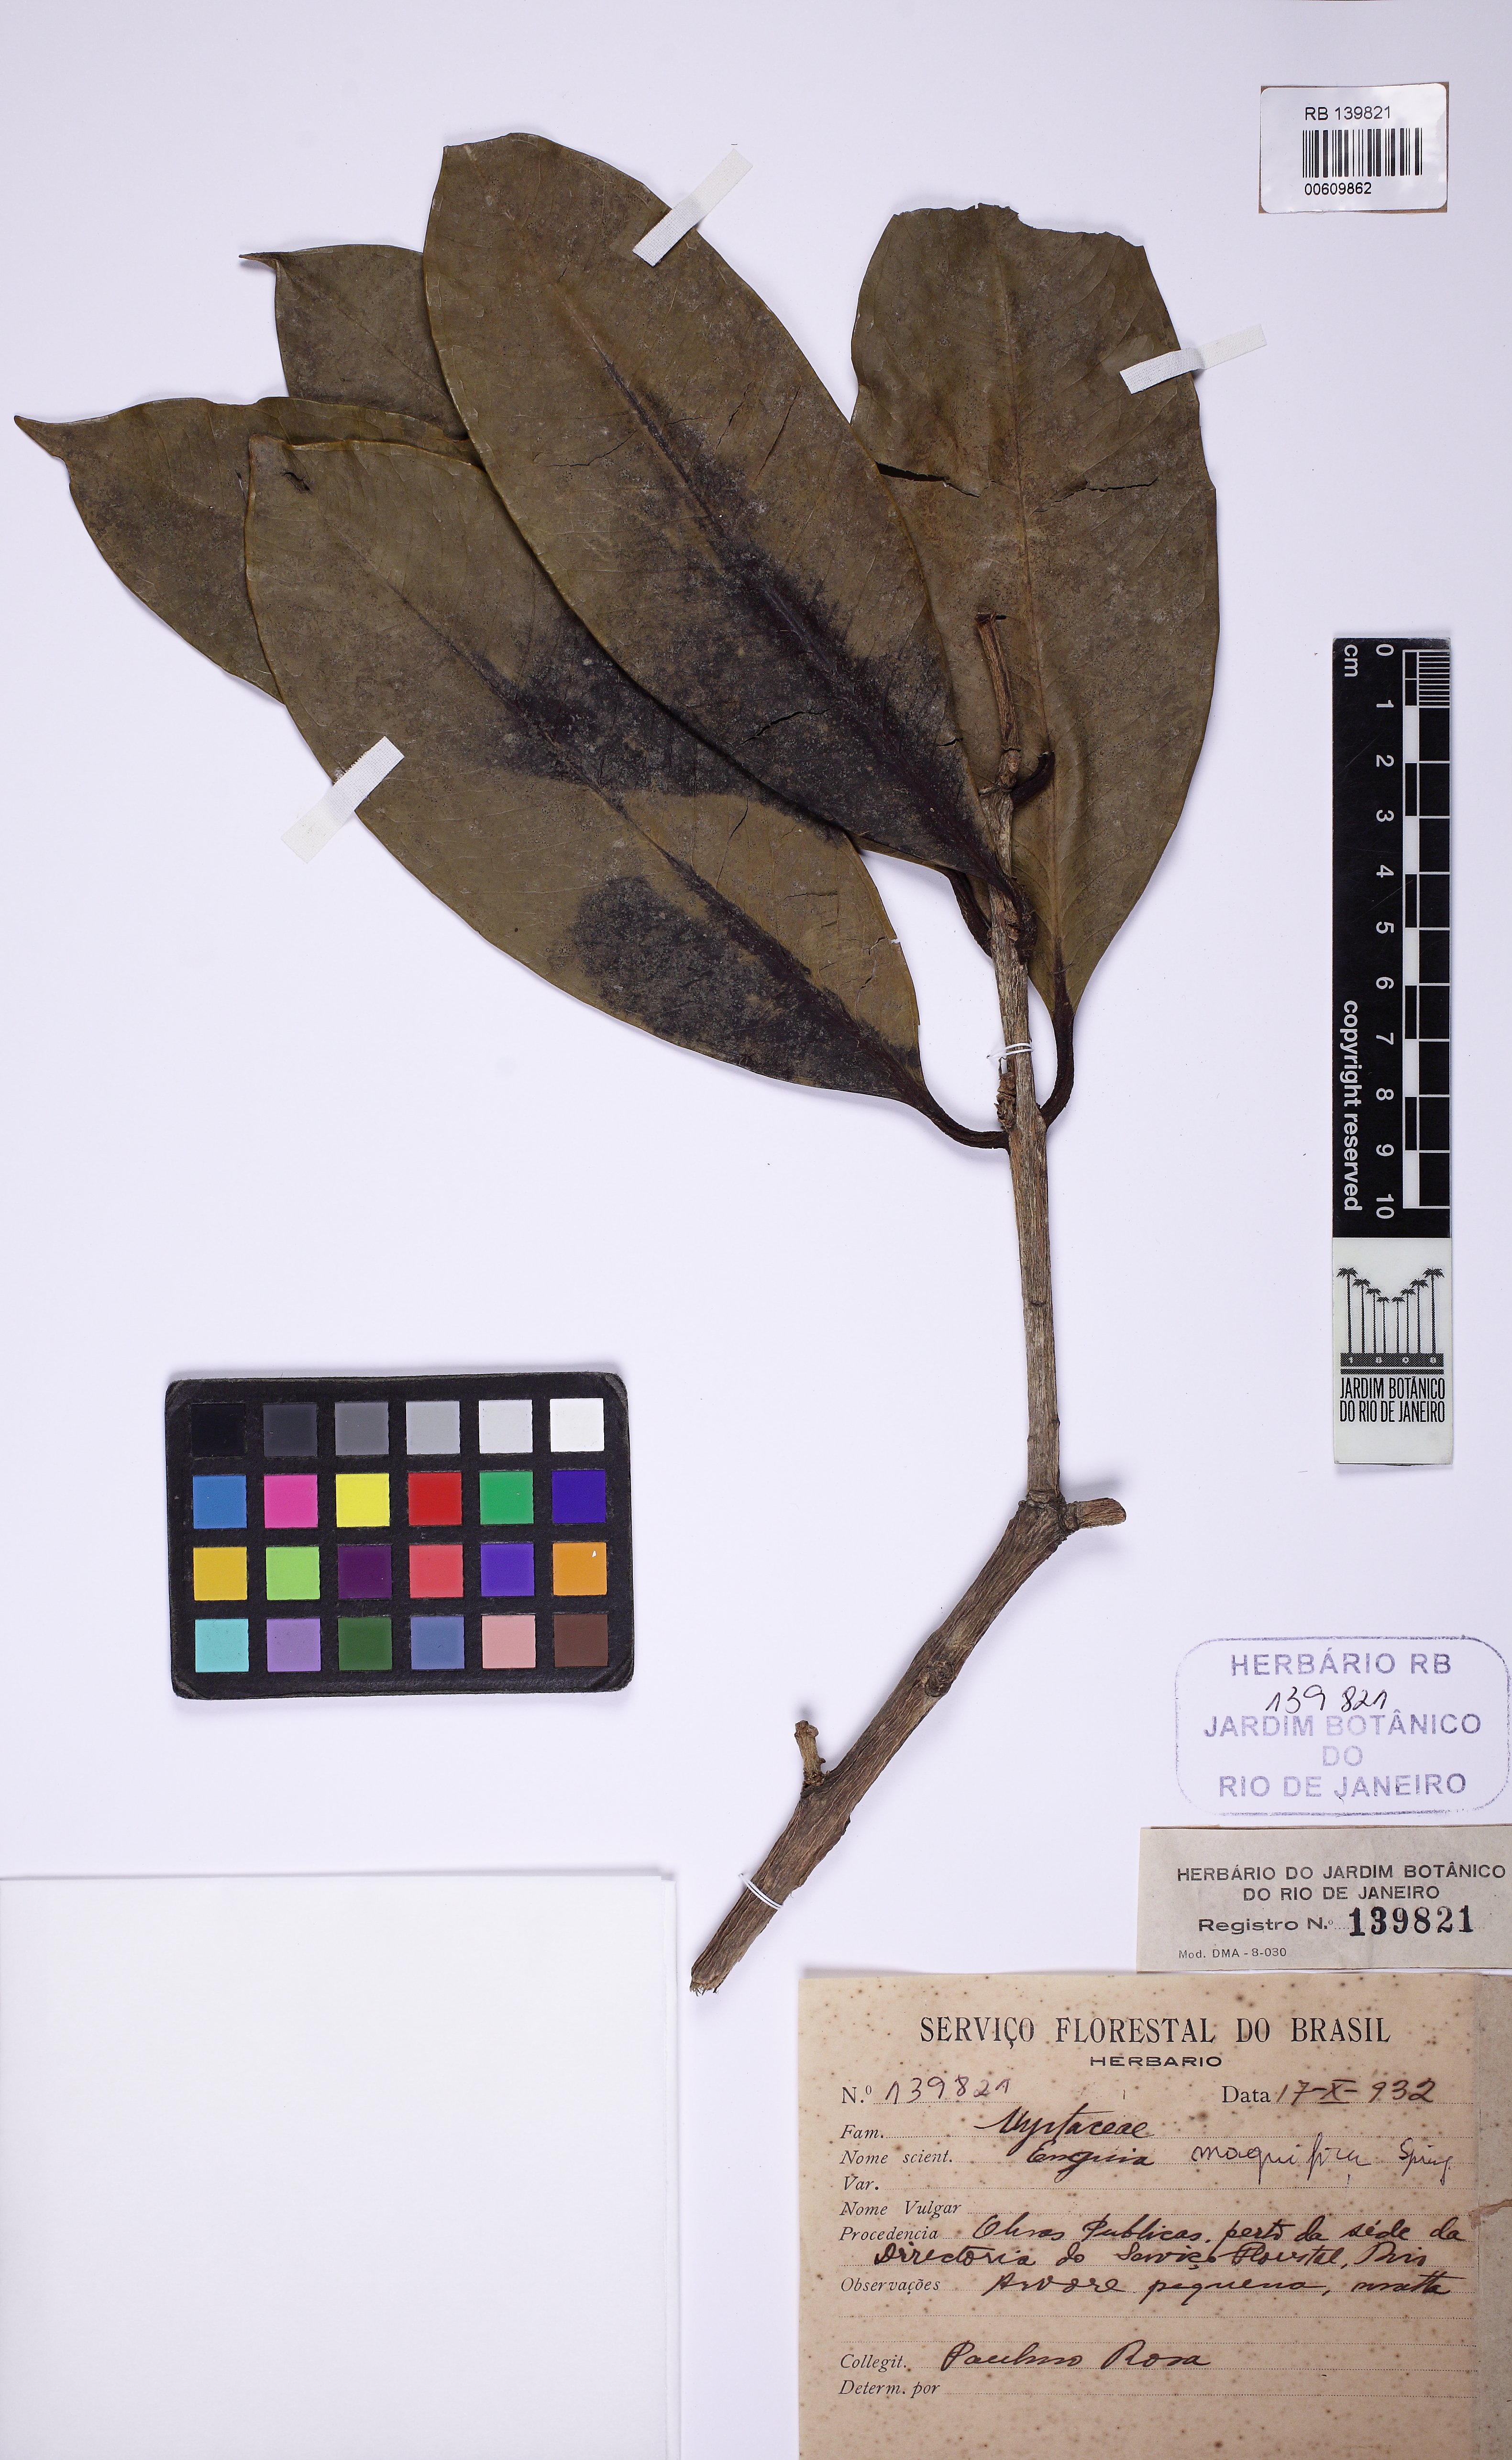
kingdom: Plantae
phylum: Tracheophyta
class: Magnoliopsida
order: Myrtales
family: Myrtaceae
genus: Eugenia
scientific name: Eugenia magnifica
